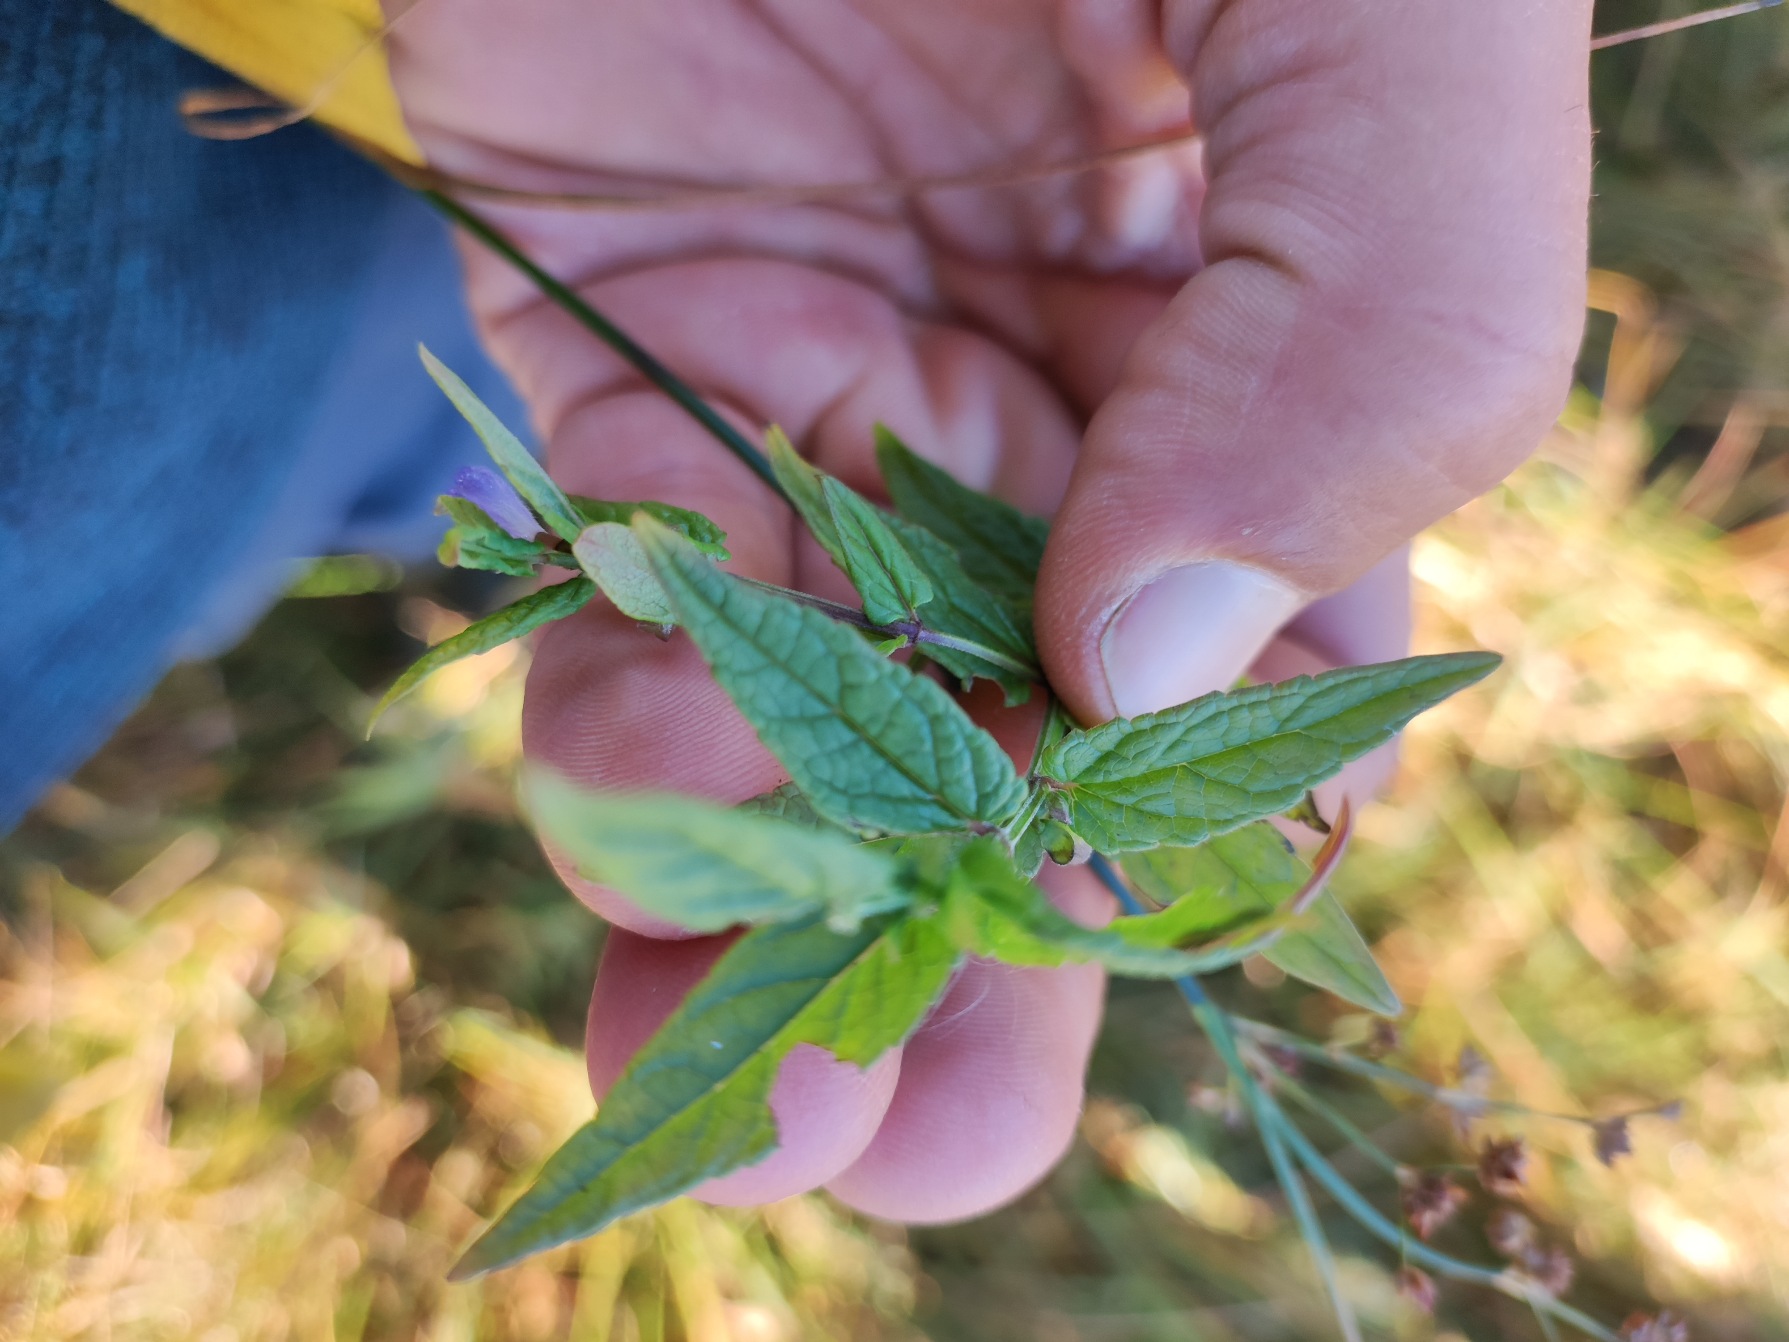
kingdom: Plantae
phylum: Tracheophyta
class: Magnoliopsida
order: Lamiales
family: Lamiaceae
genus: Scutellaria
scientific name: Scutellaria galericulata
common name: Almindelig skjolddrager
